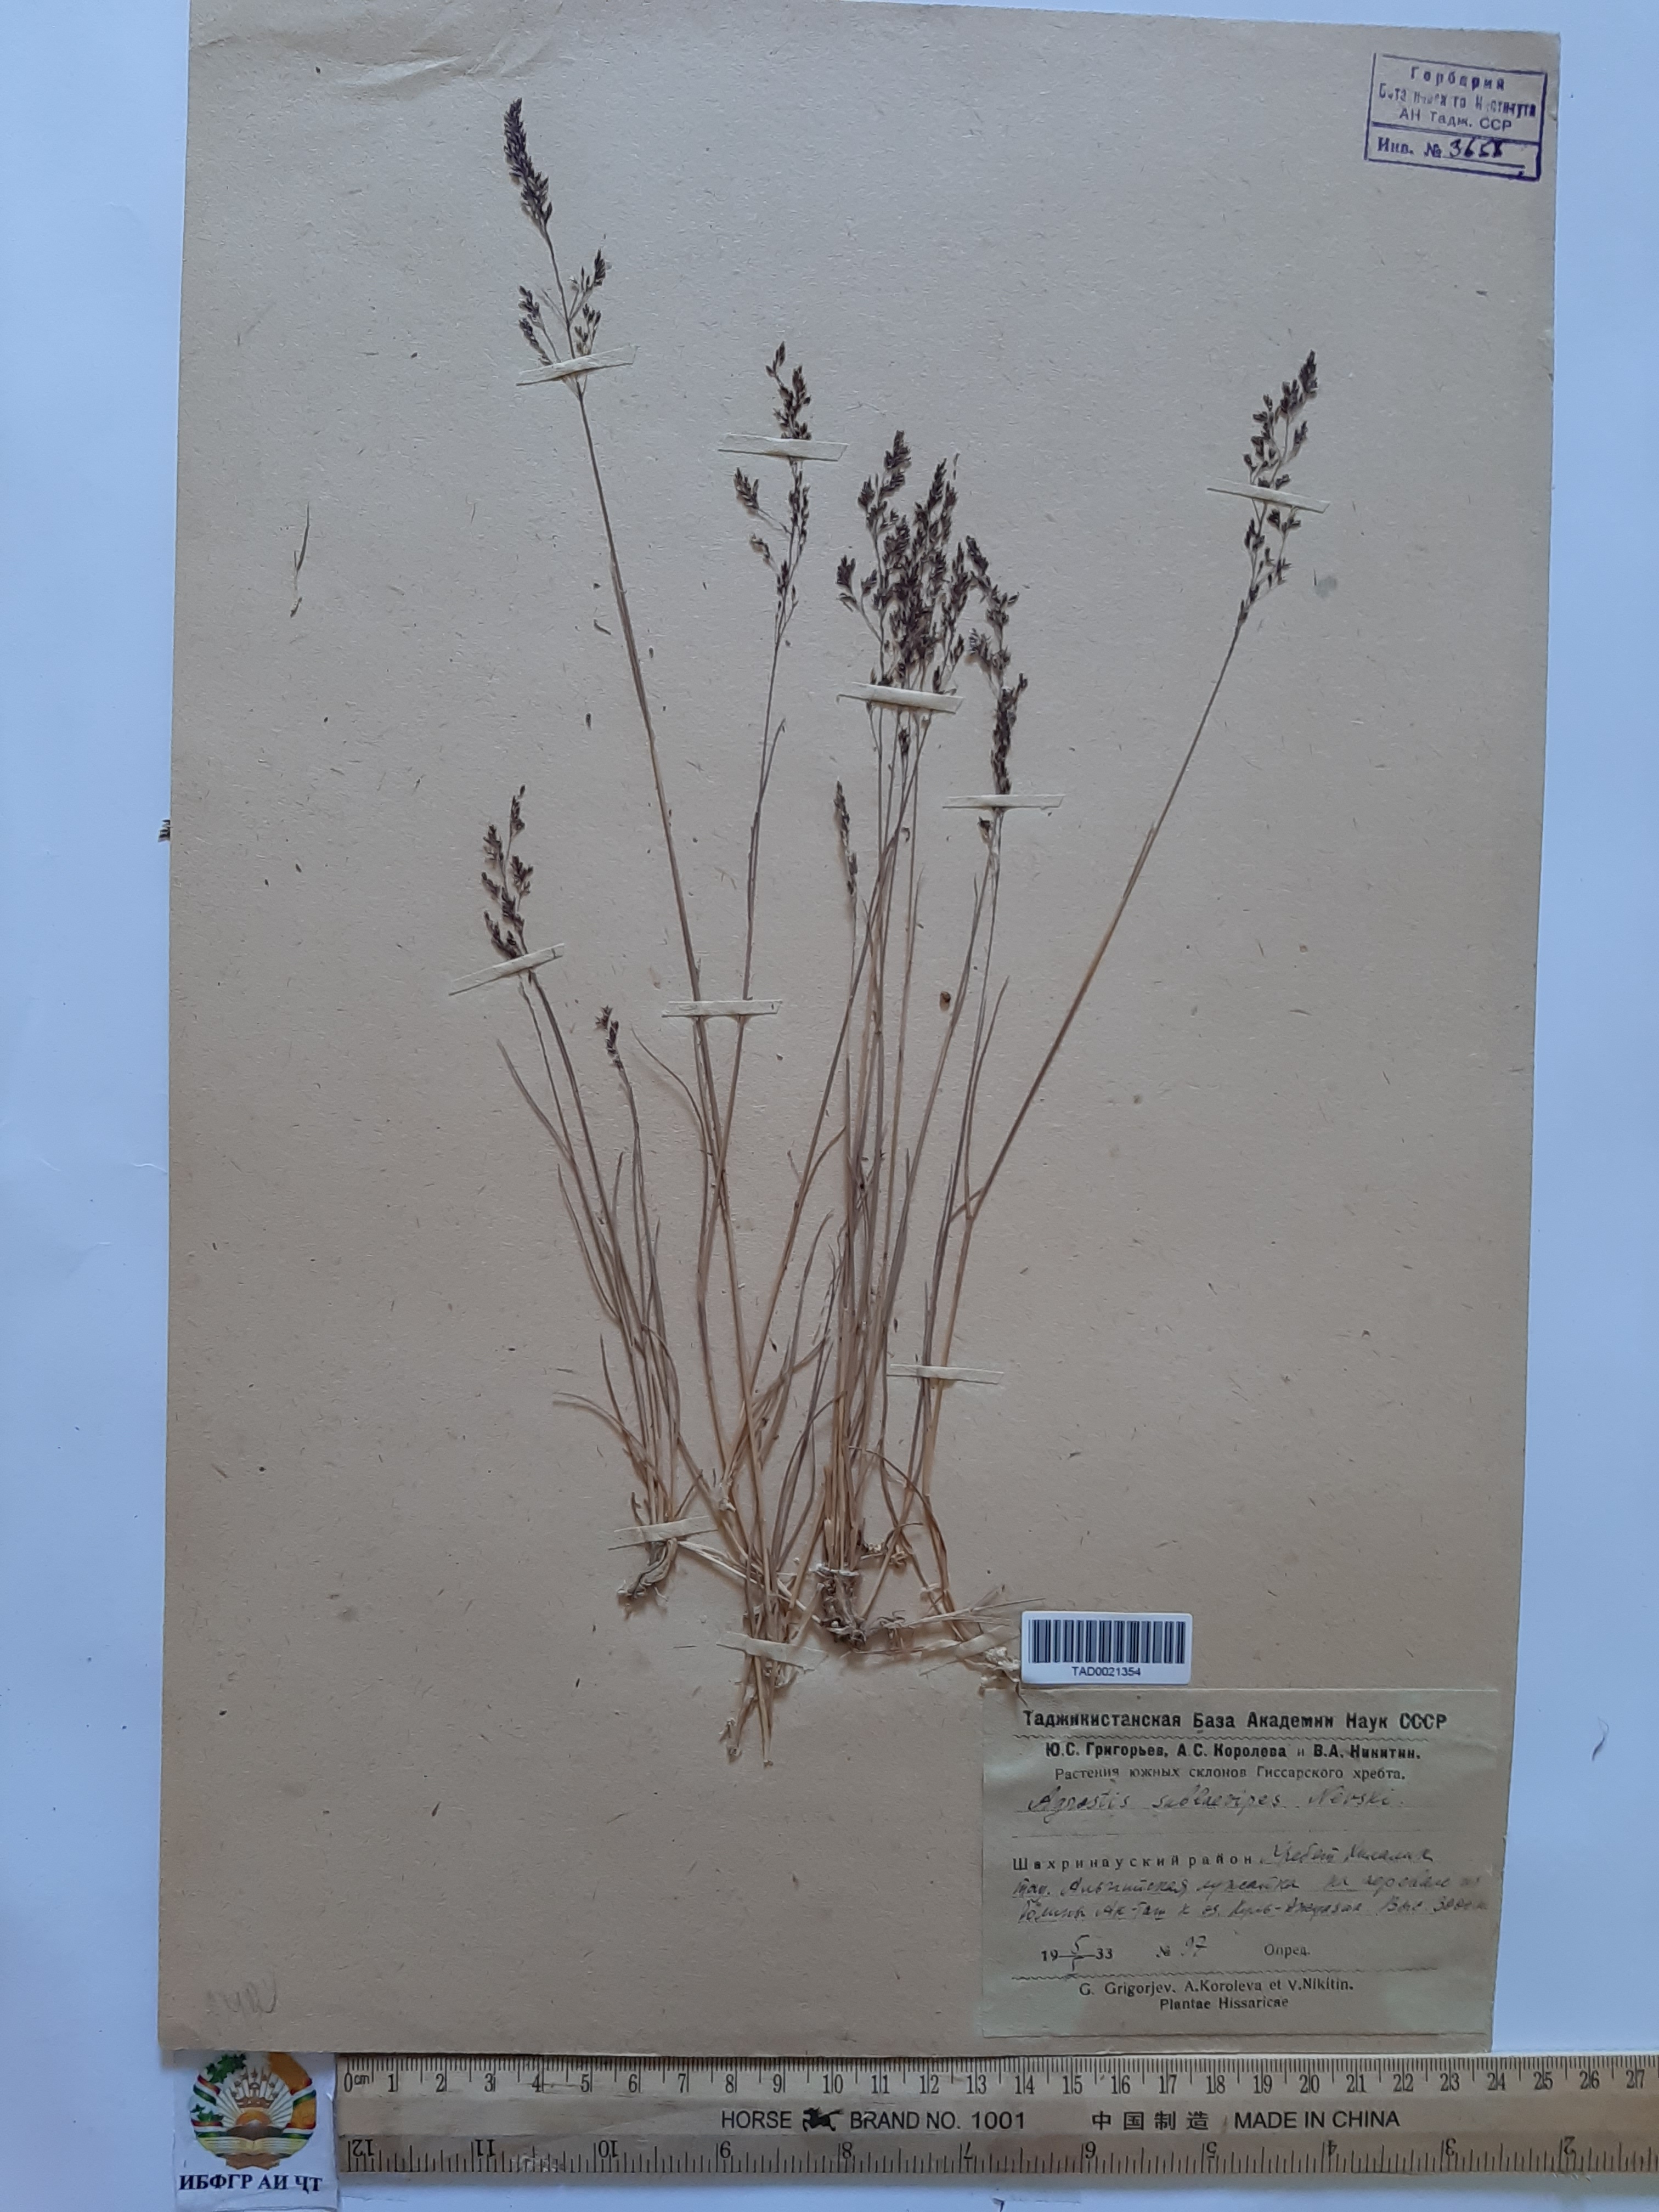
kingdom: Plantae
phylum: Tracheophyta
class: Liliopsida
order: Poales
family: Poaceae
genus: Agrostis
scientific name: Agrostis vinealis
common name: Brown bent
